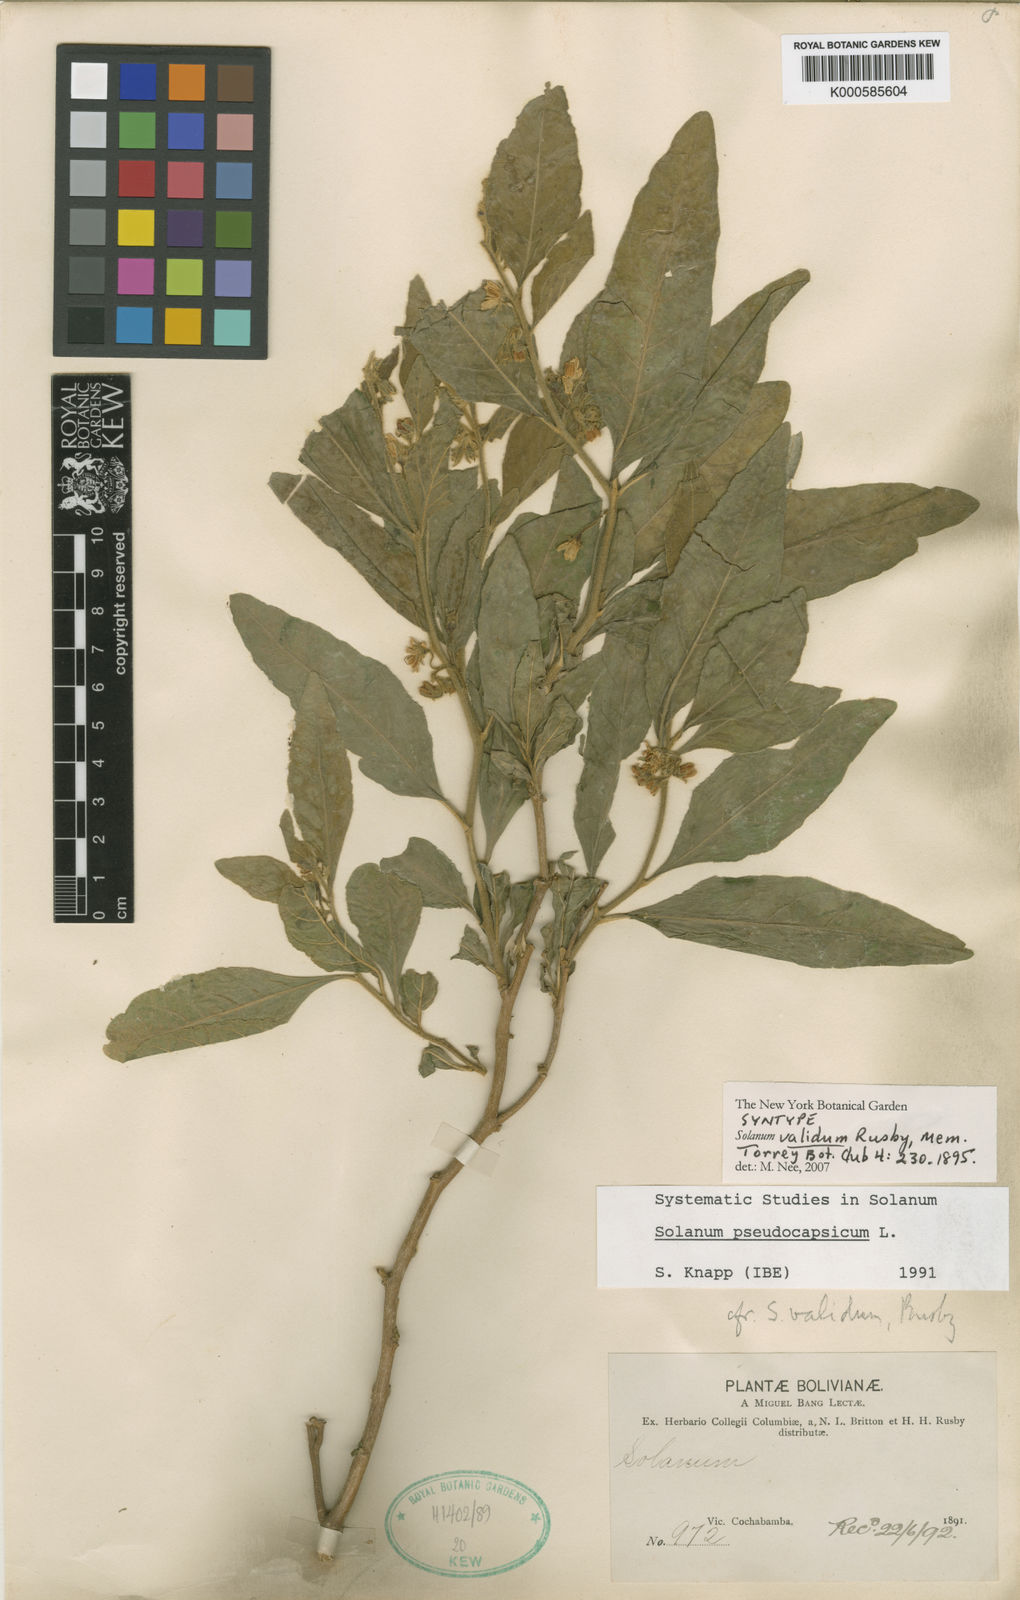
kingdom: Plantae
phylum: Tracheophyta
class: Magnoliopsida
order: Solanales
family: Solanaceae
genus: Solanum
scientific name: Solanum pseudocapsicum
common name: Jerusalem cherry
